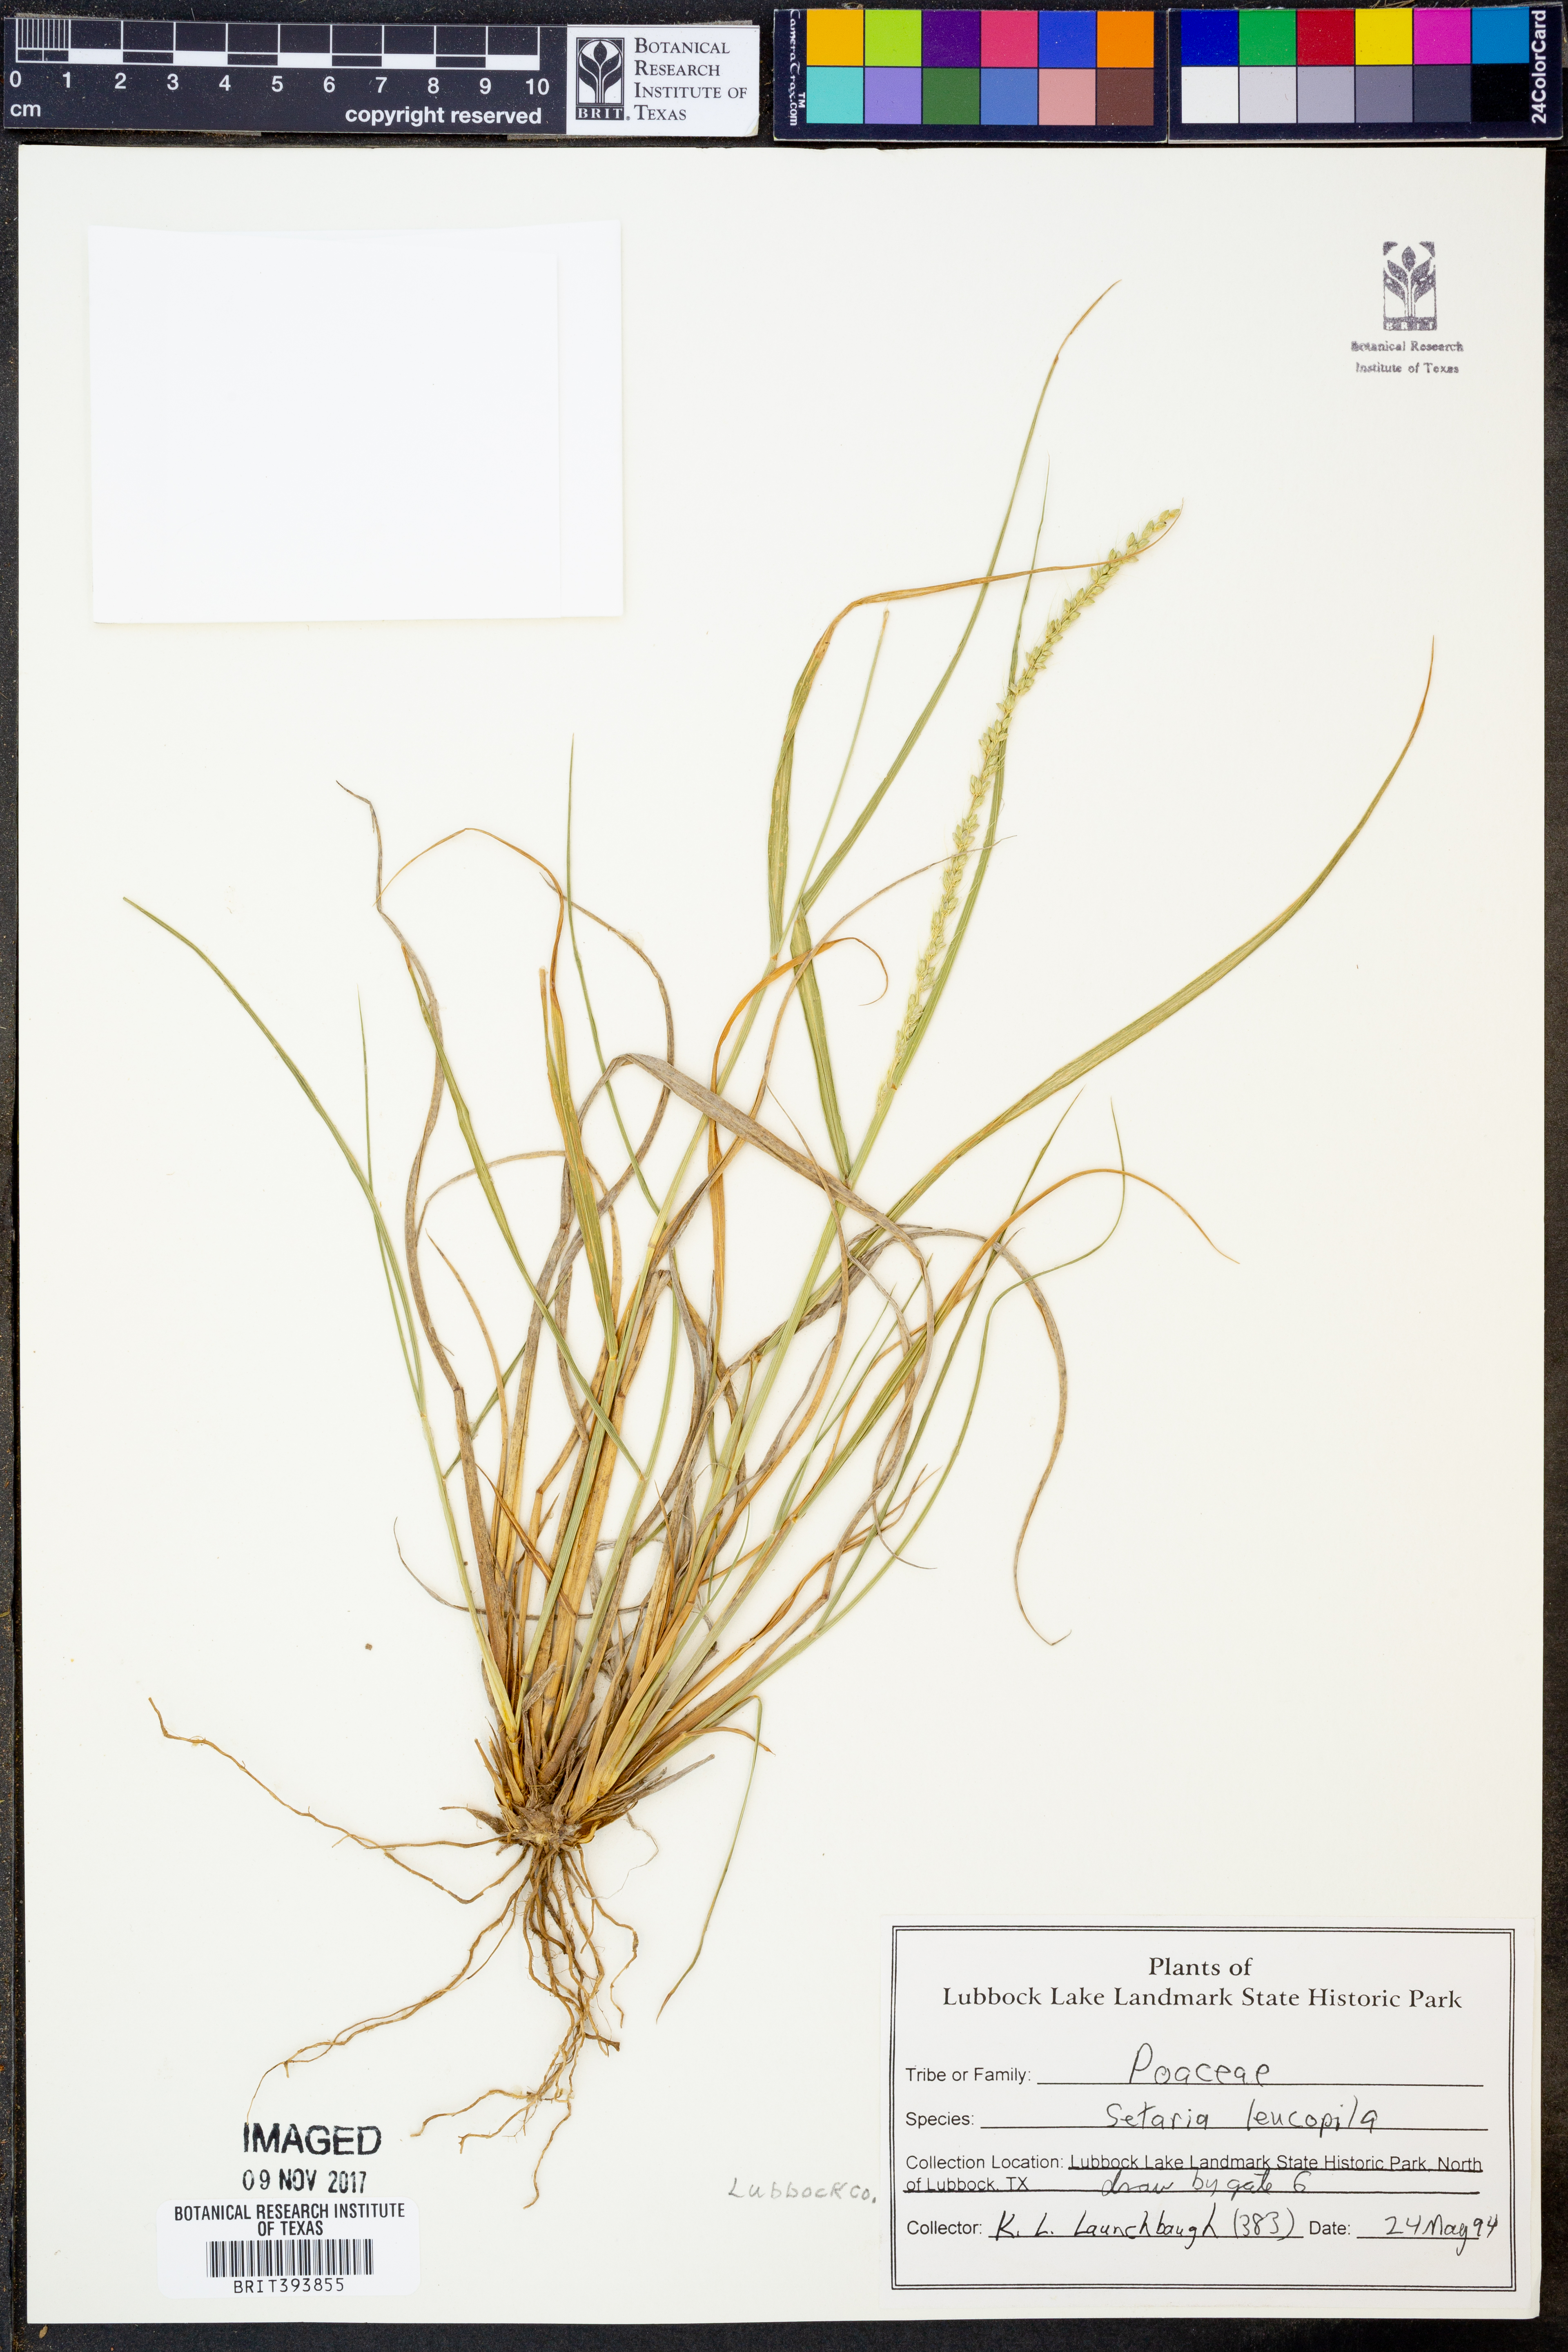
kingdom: Plantae
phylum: Tracheophyta
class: Liliopsida
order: Poales
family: Poaceae
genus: Setaria
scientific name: Setaria leucopila
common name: Plains bristle grass
